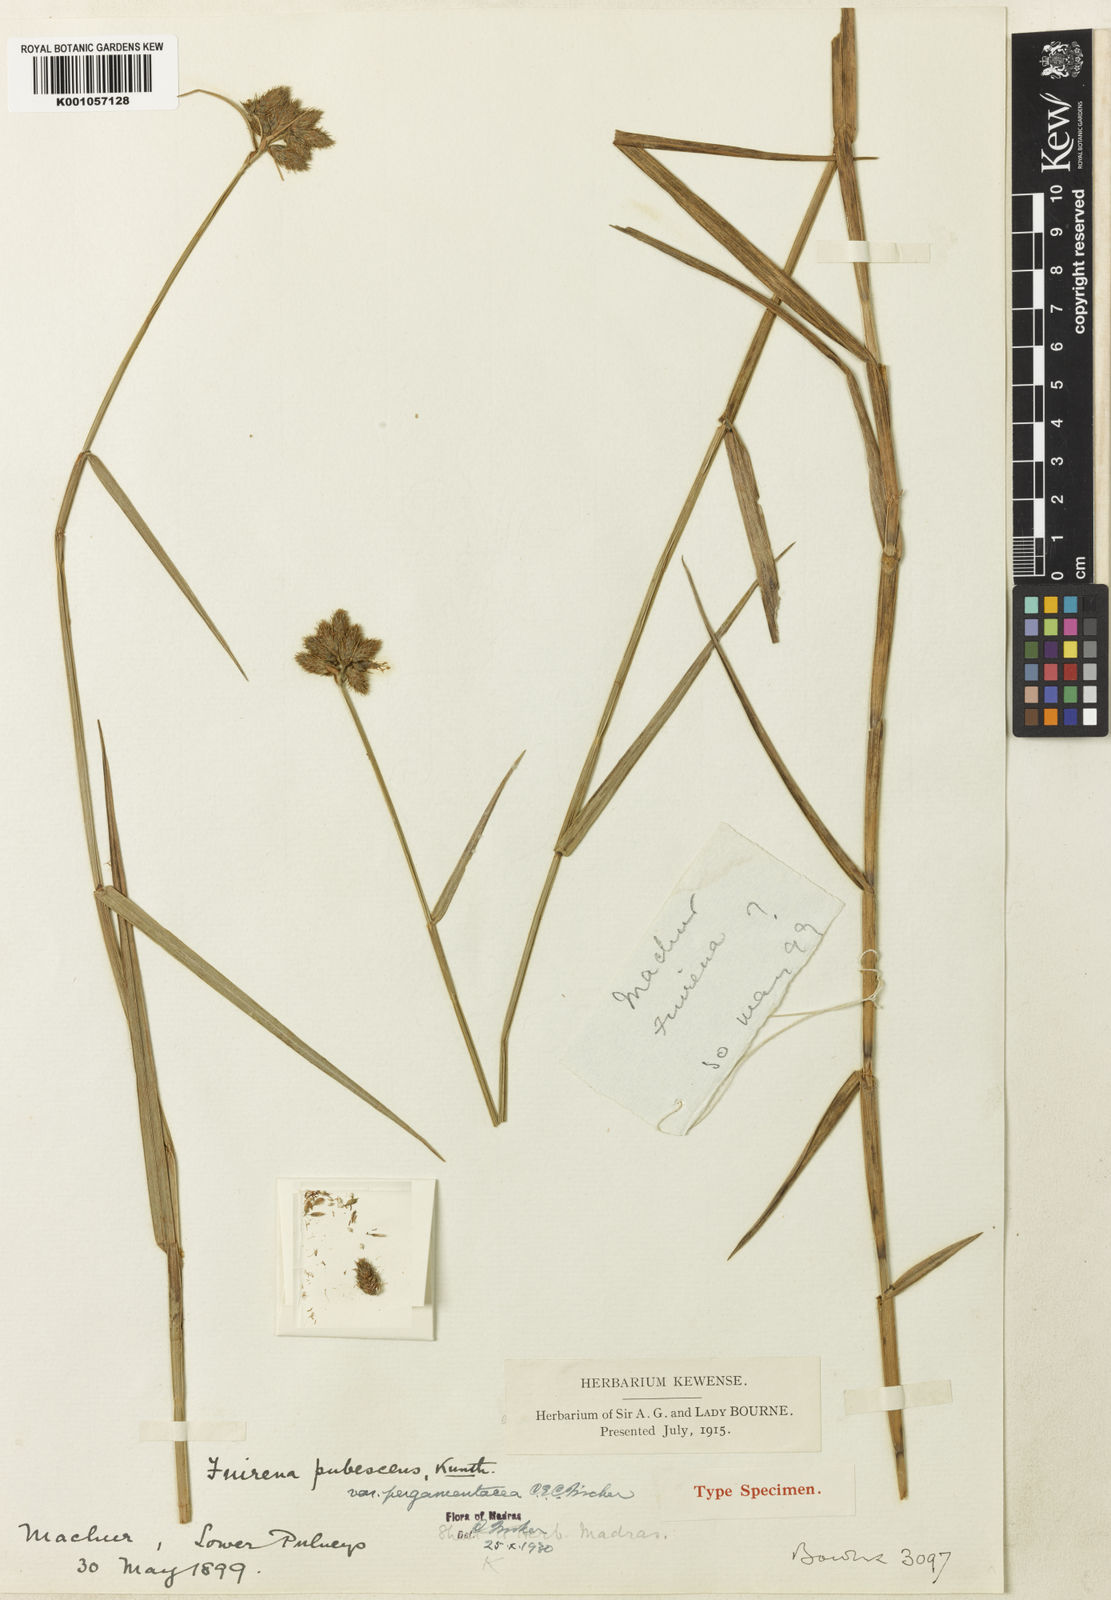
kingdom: Plantae
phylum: Tracheophyta
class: Liliopsida
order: Poales
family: Cyperaceae
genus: Fuirena
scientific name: Fuirena pubescens
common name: Hairy sedge
